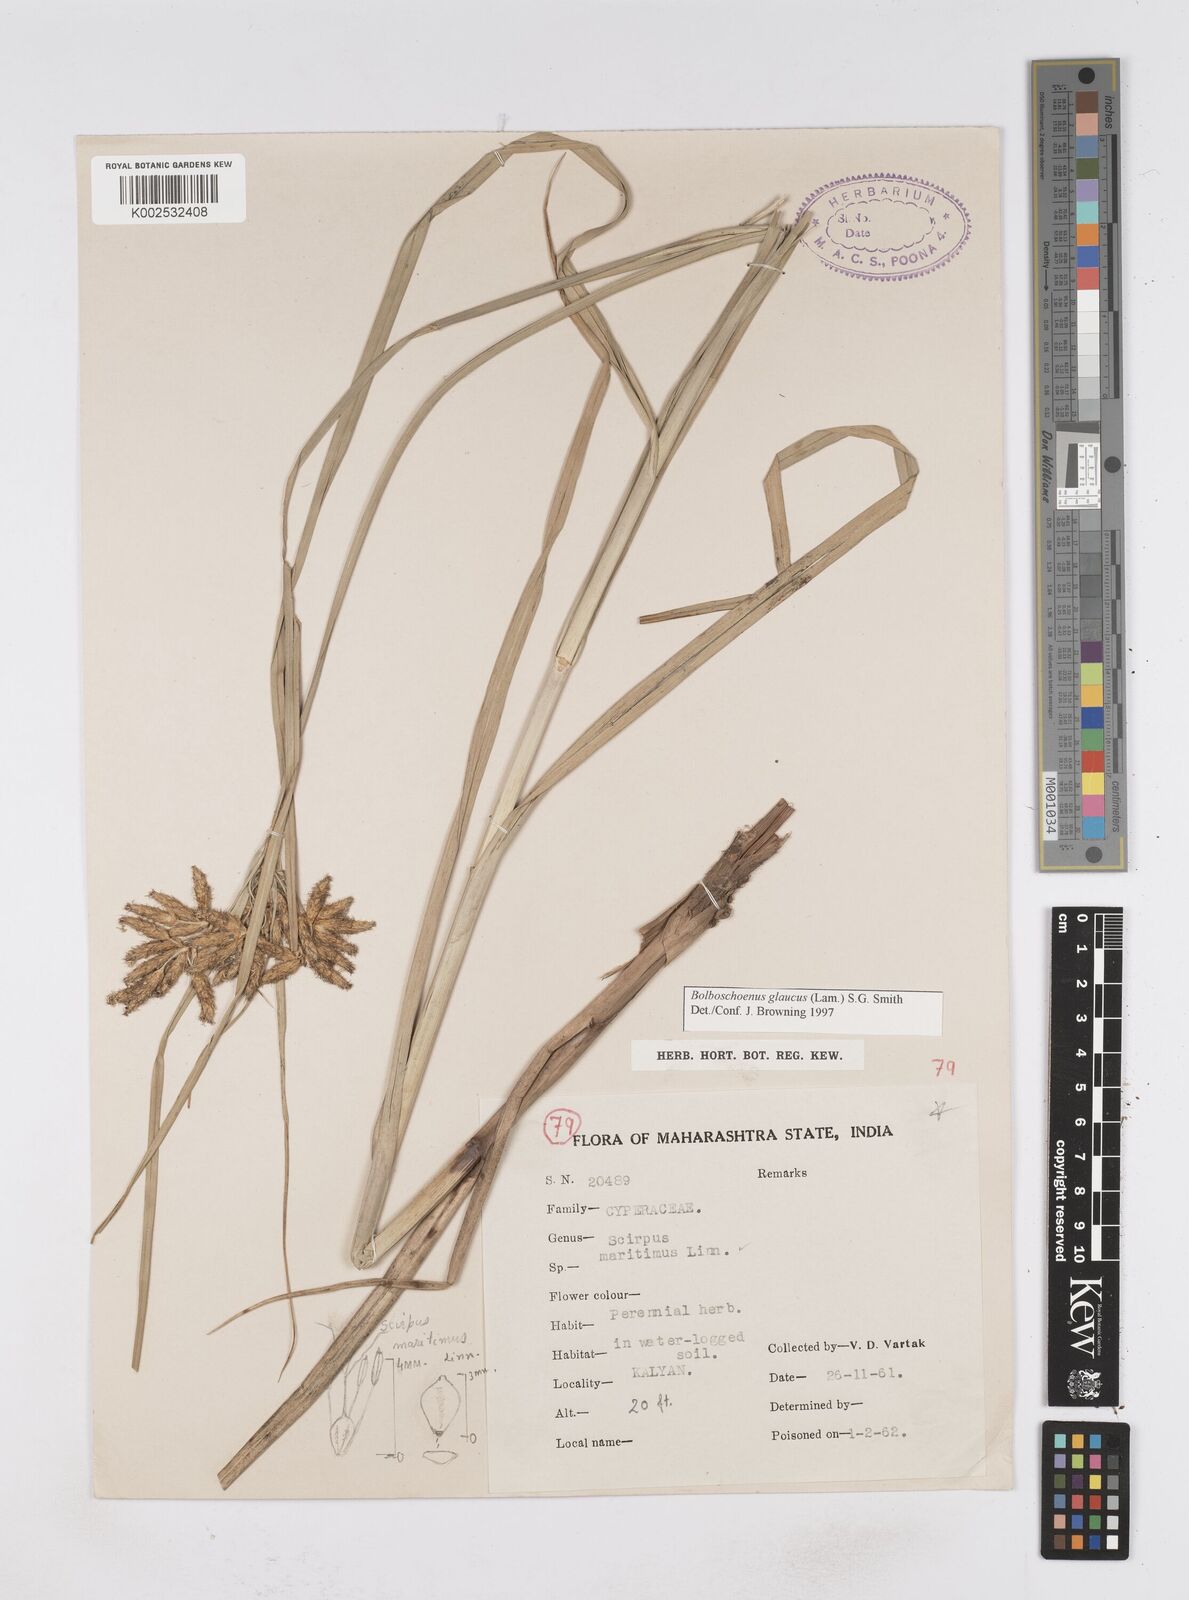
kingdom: Plantae
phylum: Tracheophyta
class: Liliopsida
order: Poales
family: Cyperaceae
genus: Bolboschoenus
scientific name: Bolboschoenus maritimus
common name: Sea club-rush
